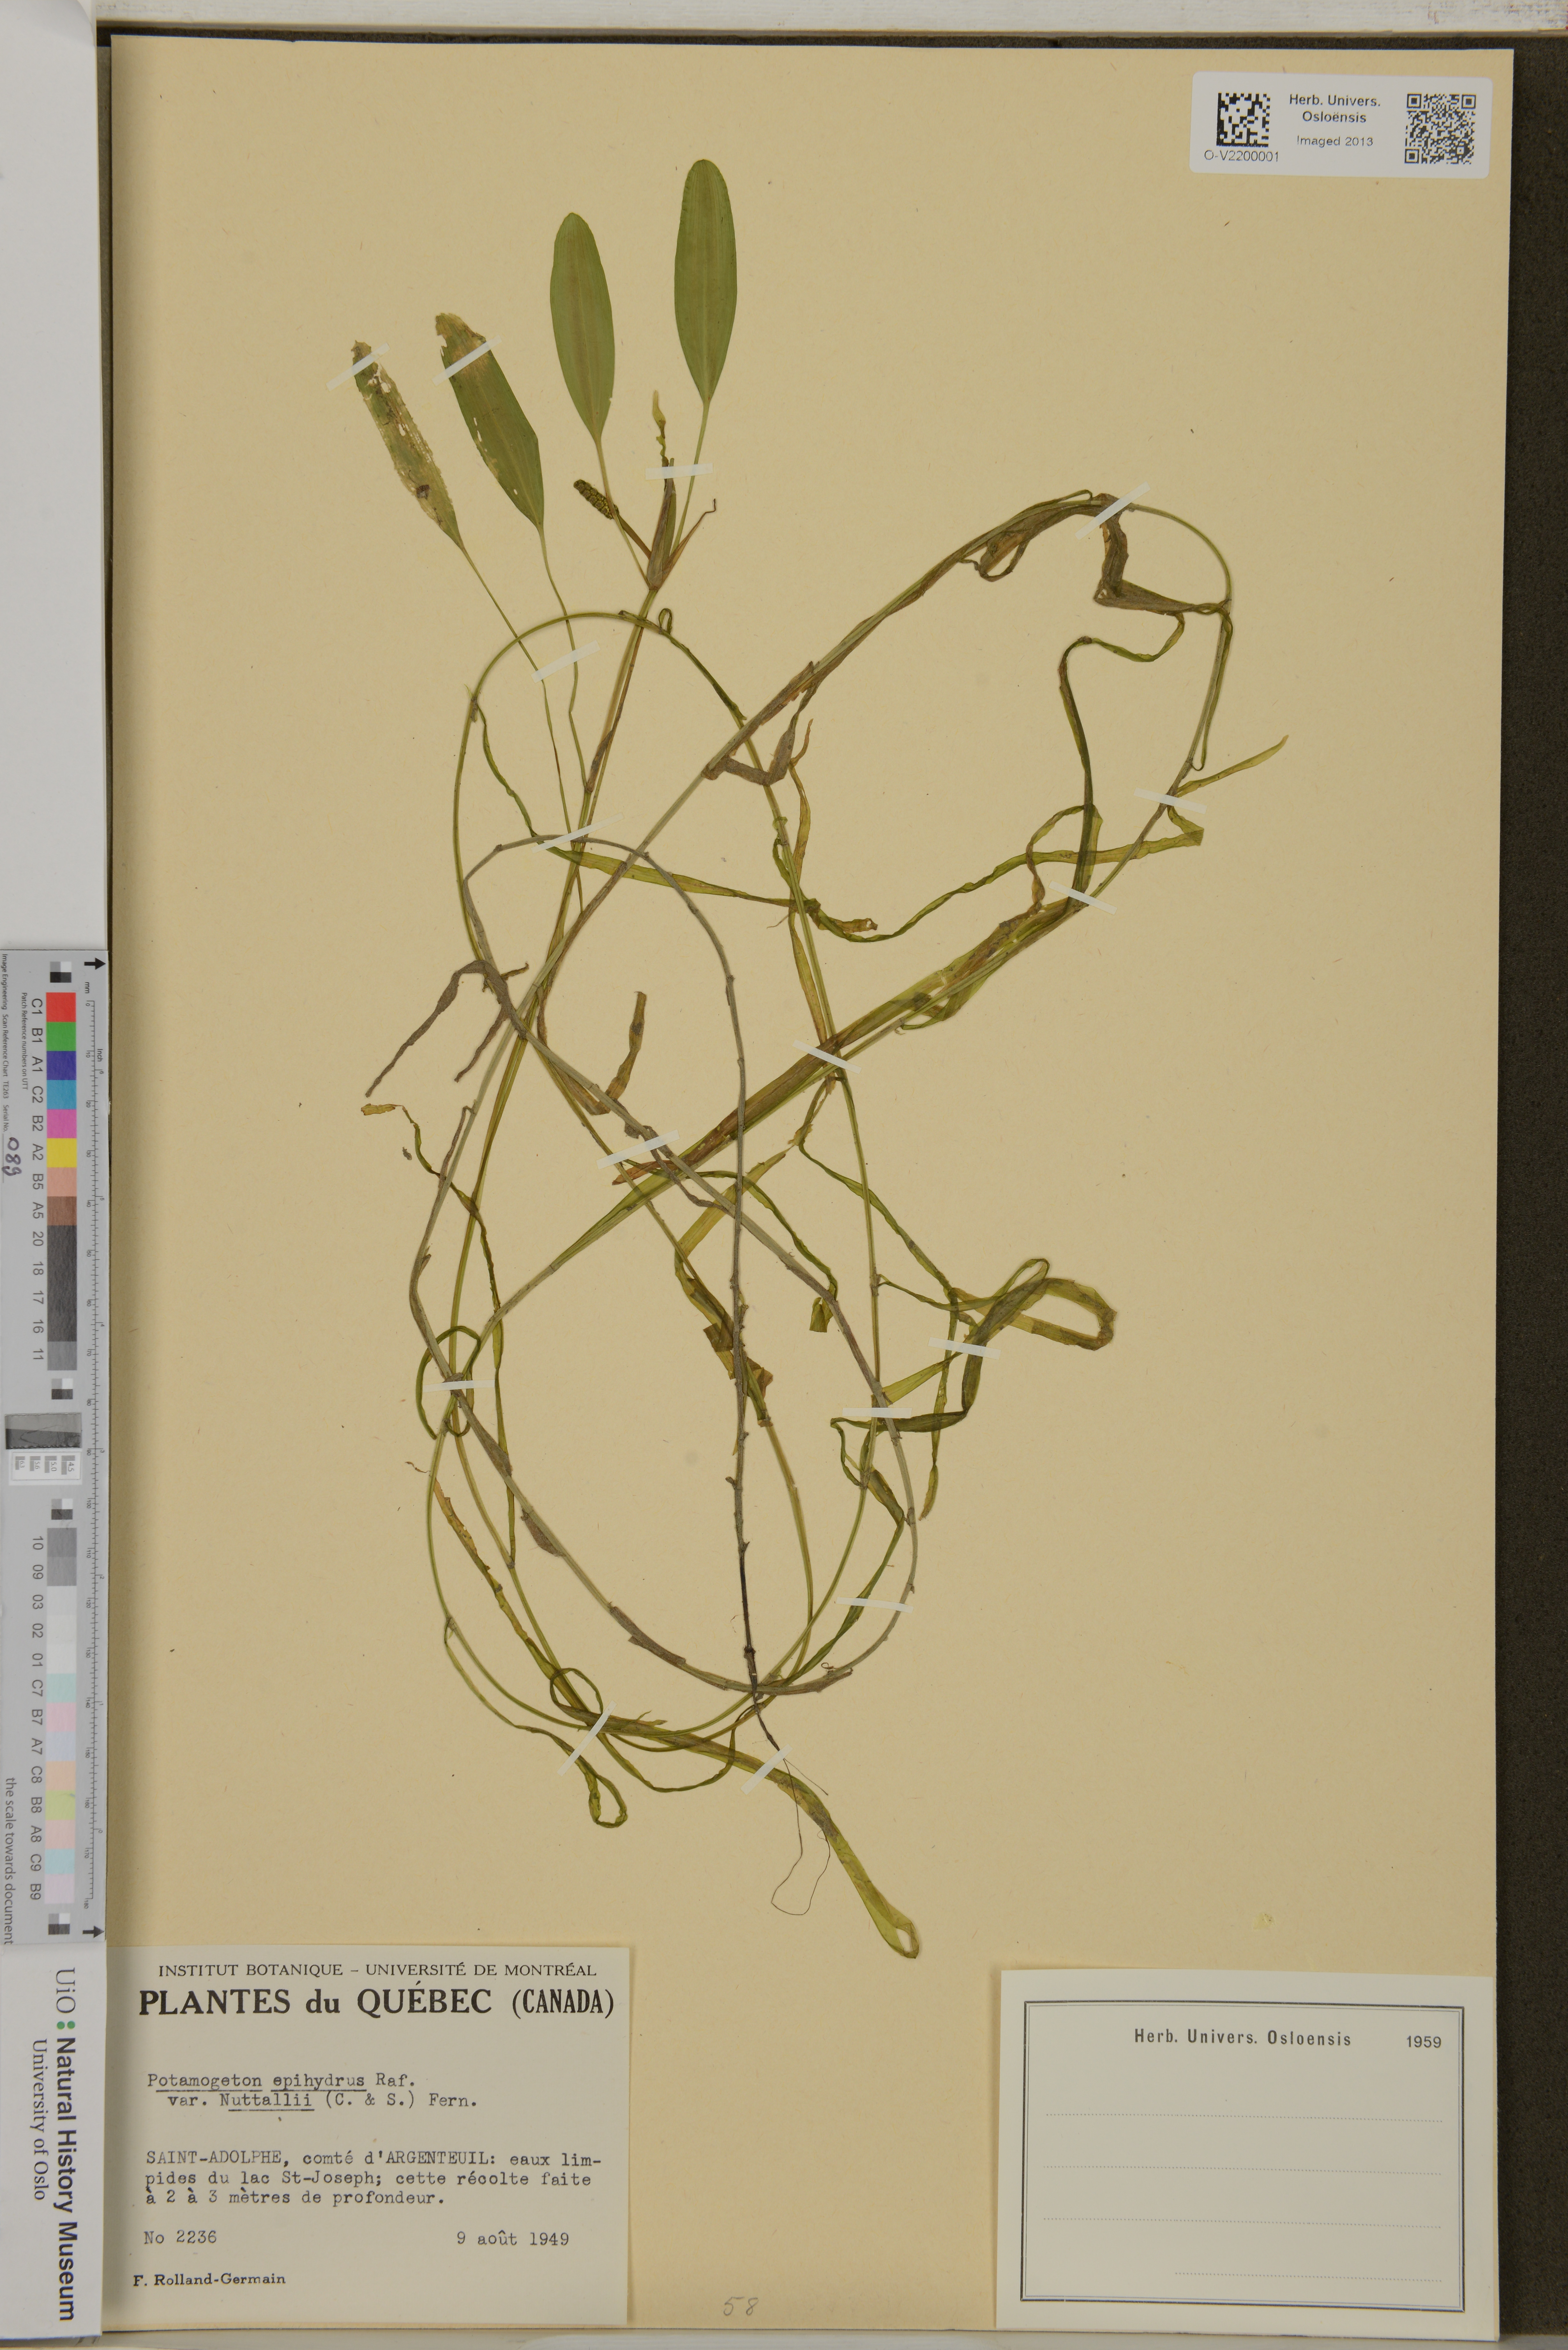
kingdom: Plantae
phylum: Tracheophyta
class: Liliopsida
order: Alismatales
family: Potamogetonaceae
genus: Potamogeton
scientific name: Potamogeton epihydrus
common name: American pondweed
